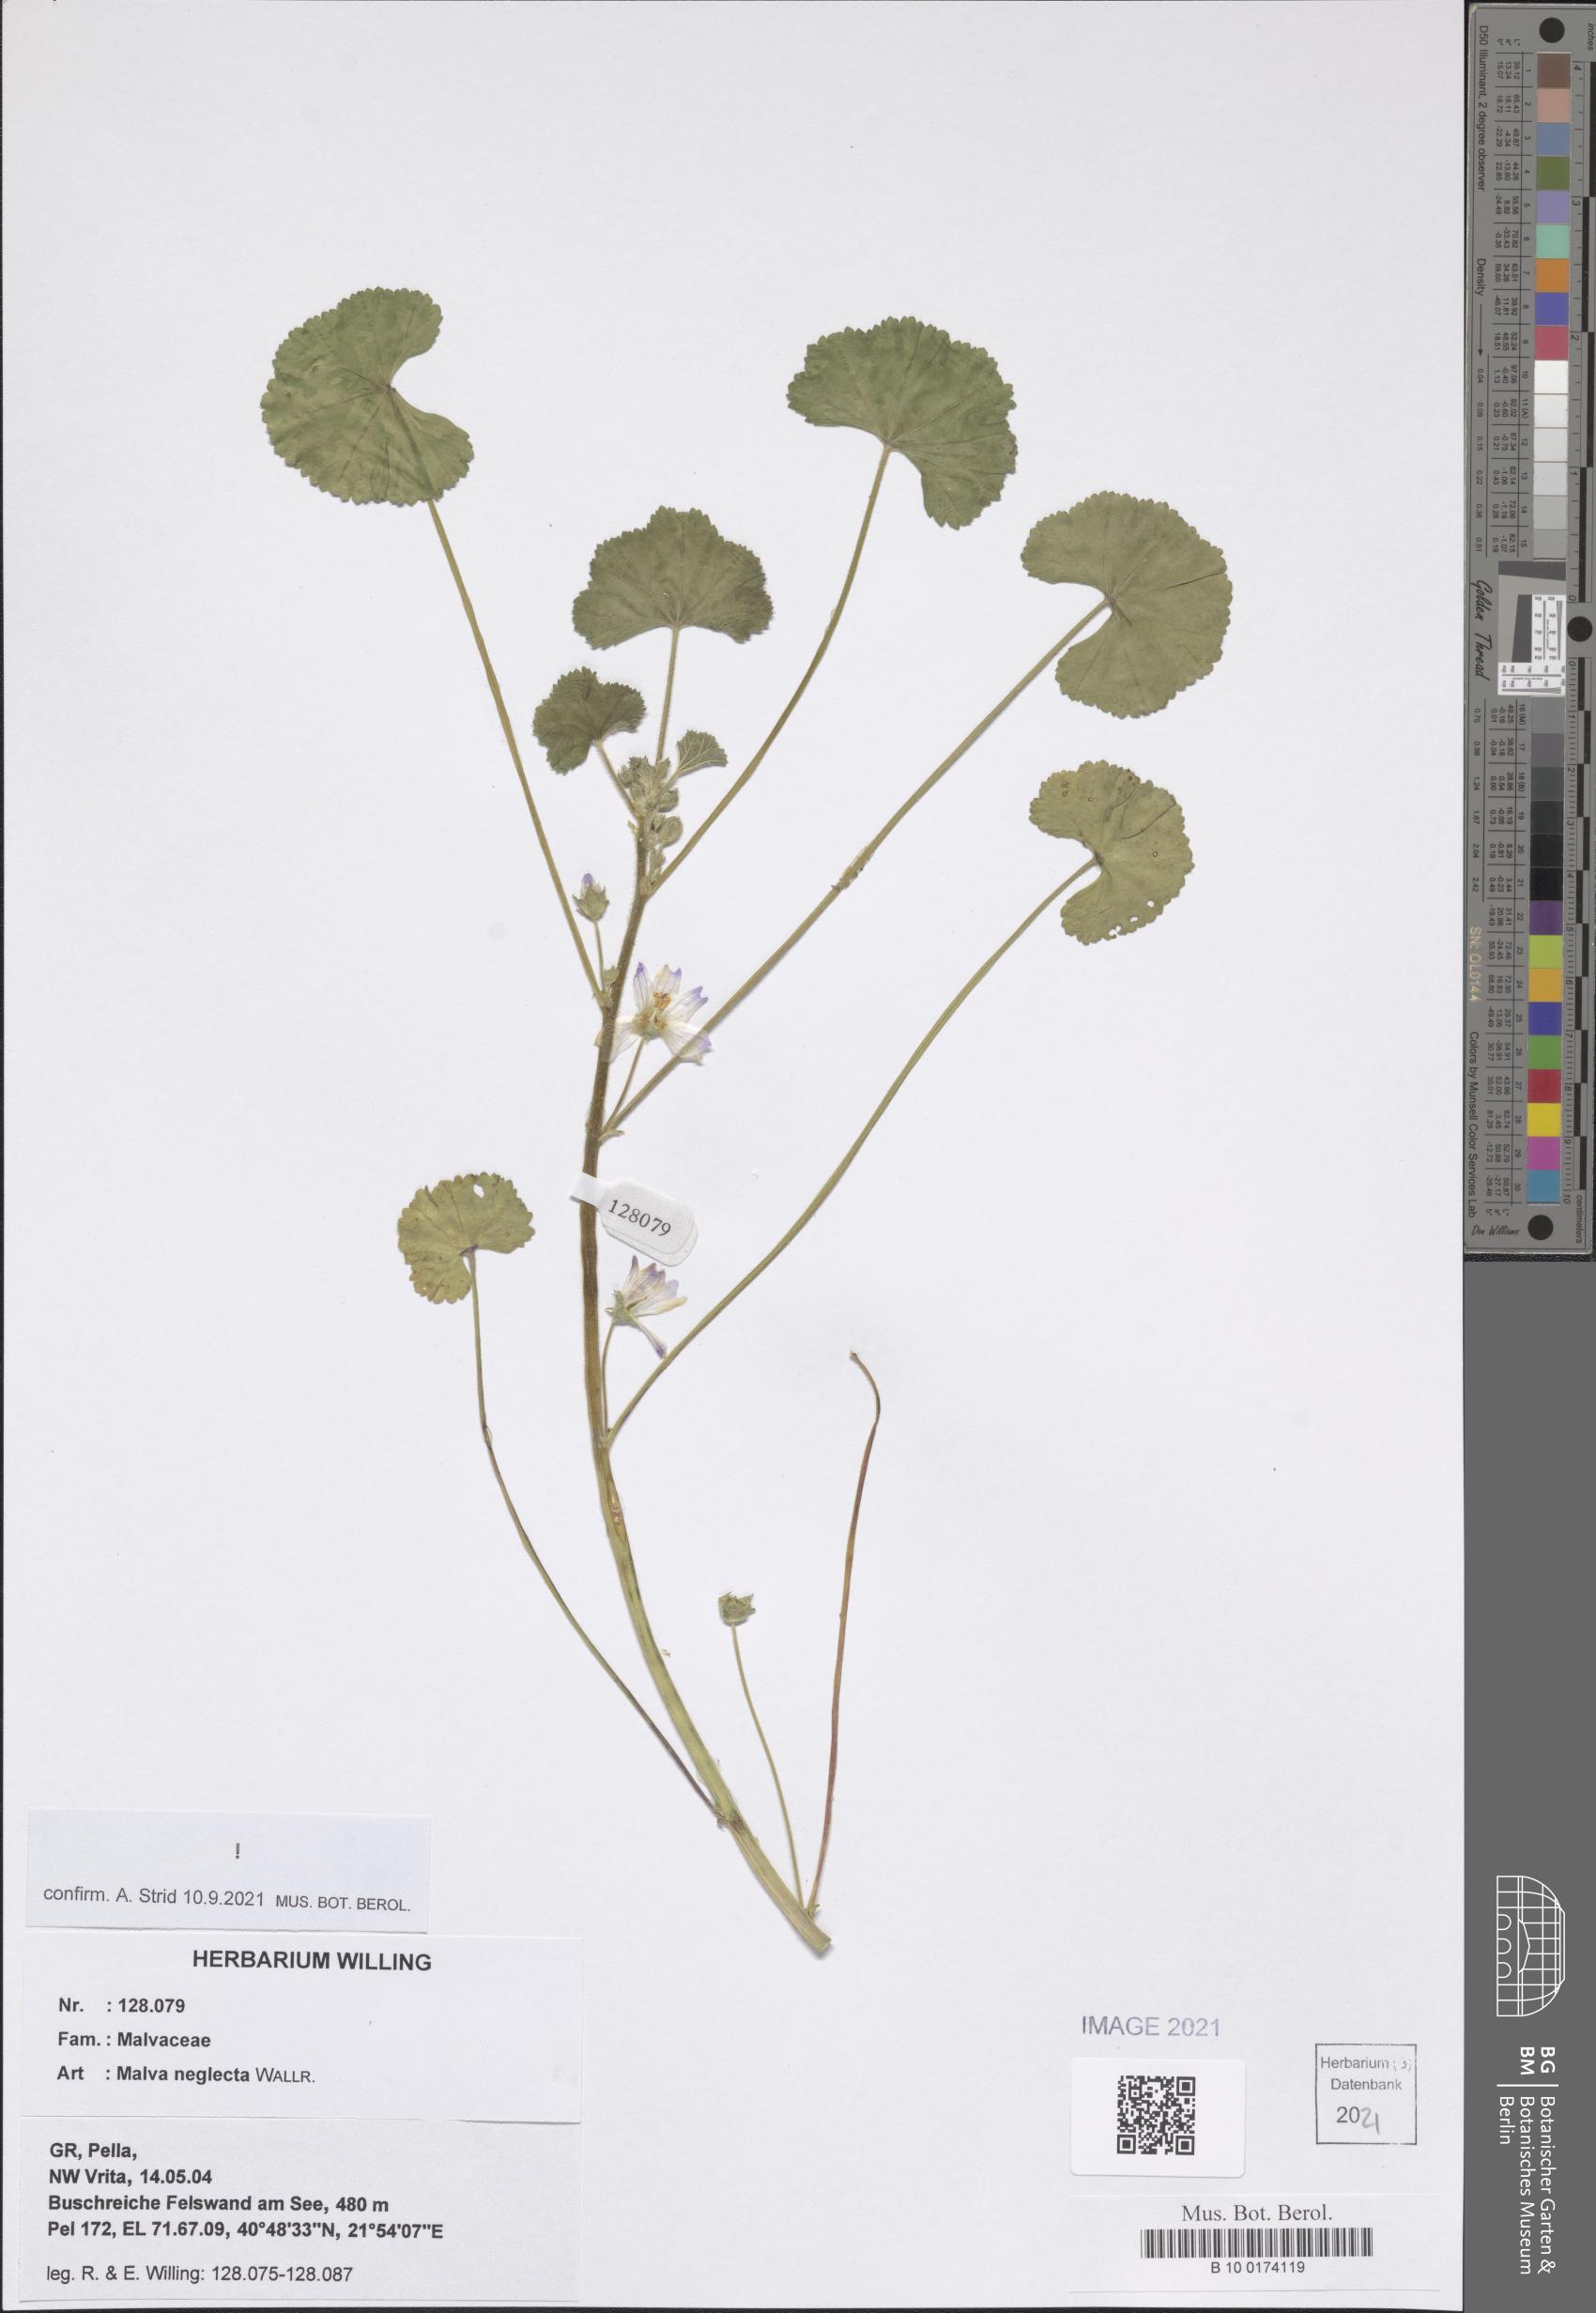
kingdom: Plantae
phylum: Tracheophyta
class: Magnoliopsida
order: Malvales
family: Malvaceae
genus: Malva
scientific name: Malva neglecta
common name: Common mallow
